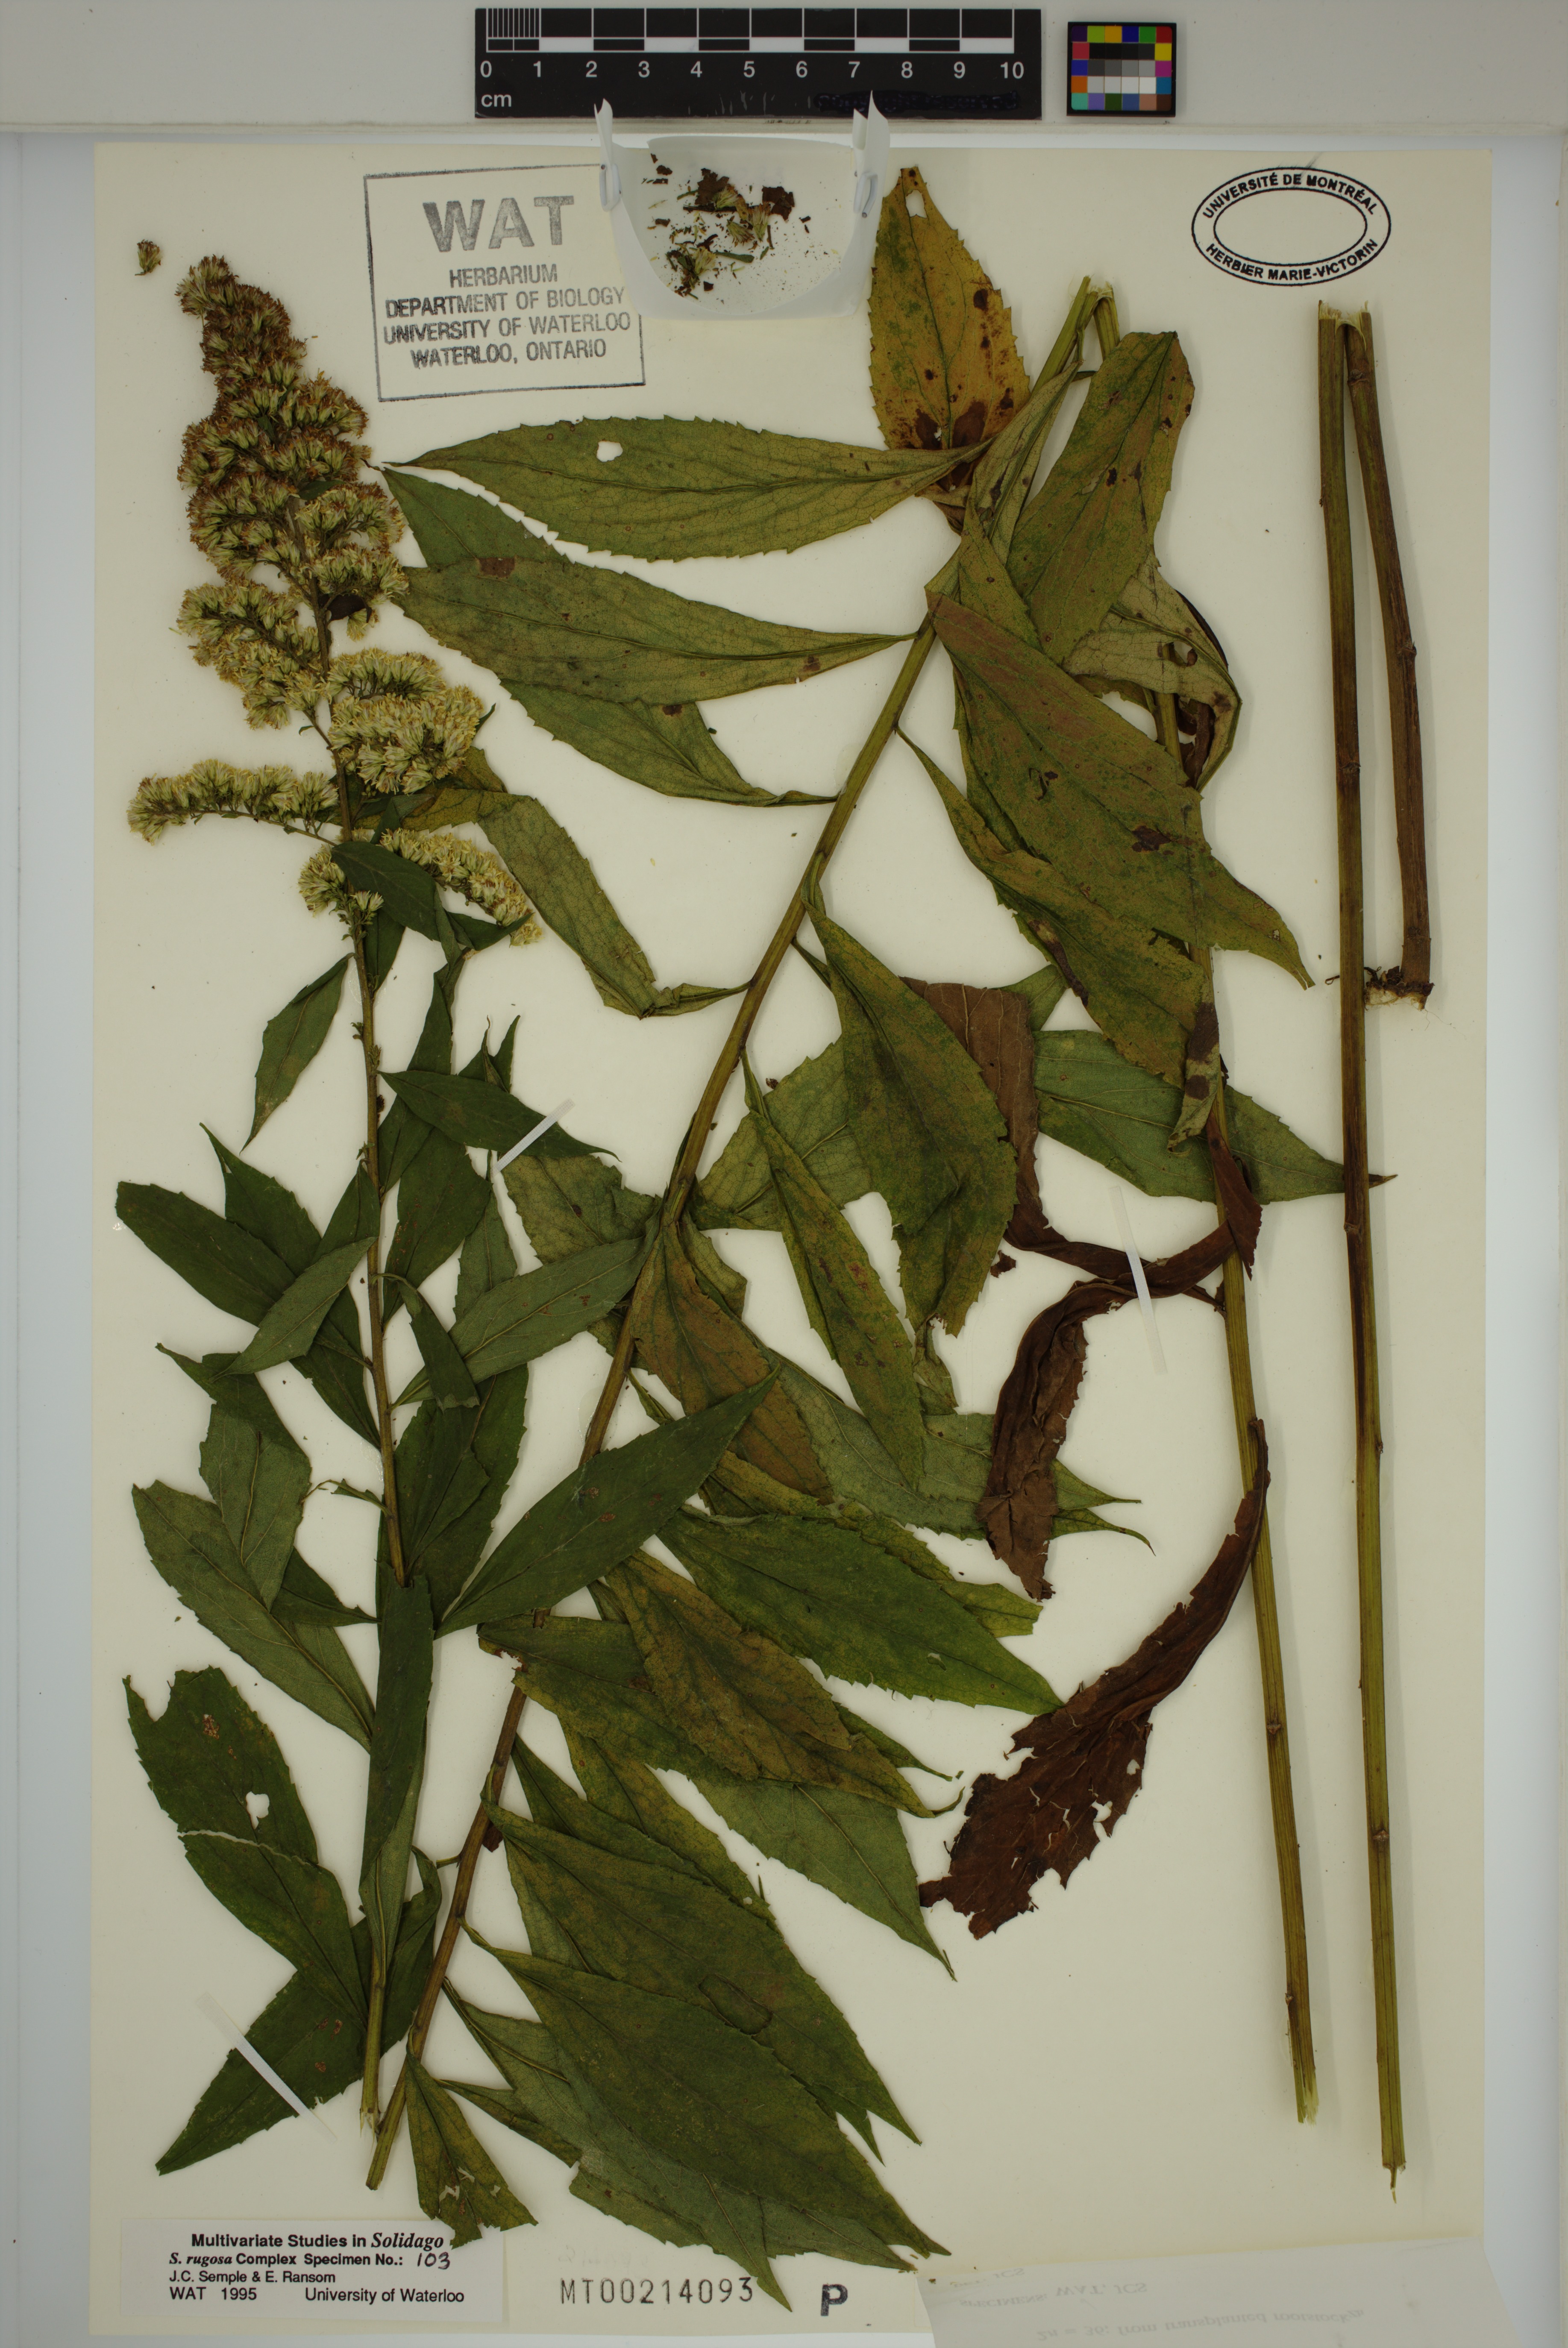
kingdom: Plantae
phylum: Tracheophyta
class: Magnoliopsida
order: Asterales
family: Asteraceae
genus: Solidago
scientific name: Solidago rugosa
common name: Rough-stemmed goldenrod
